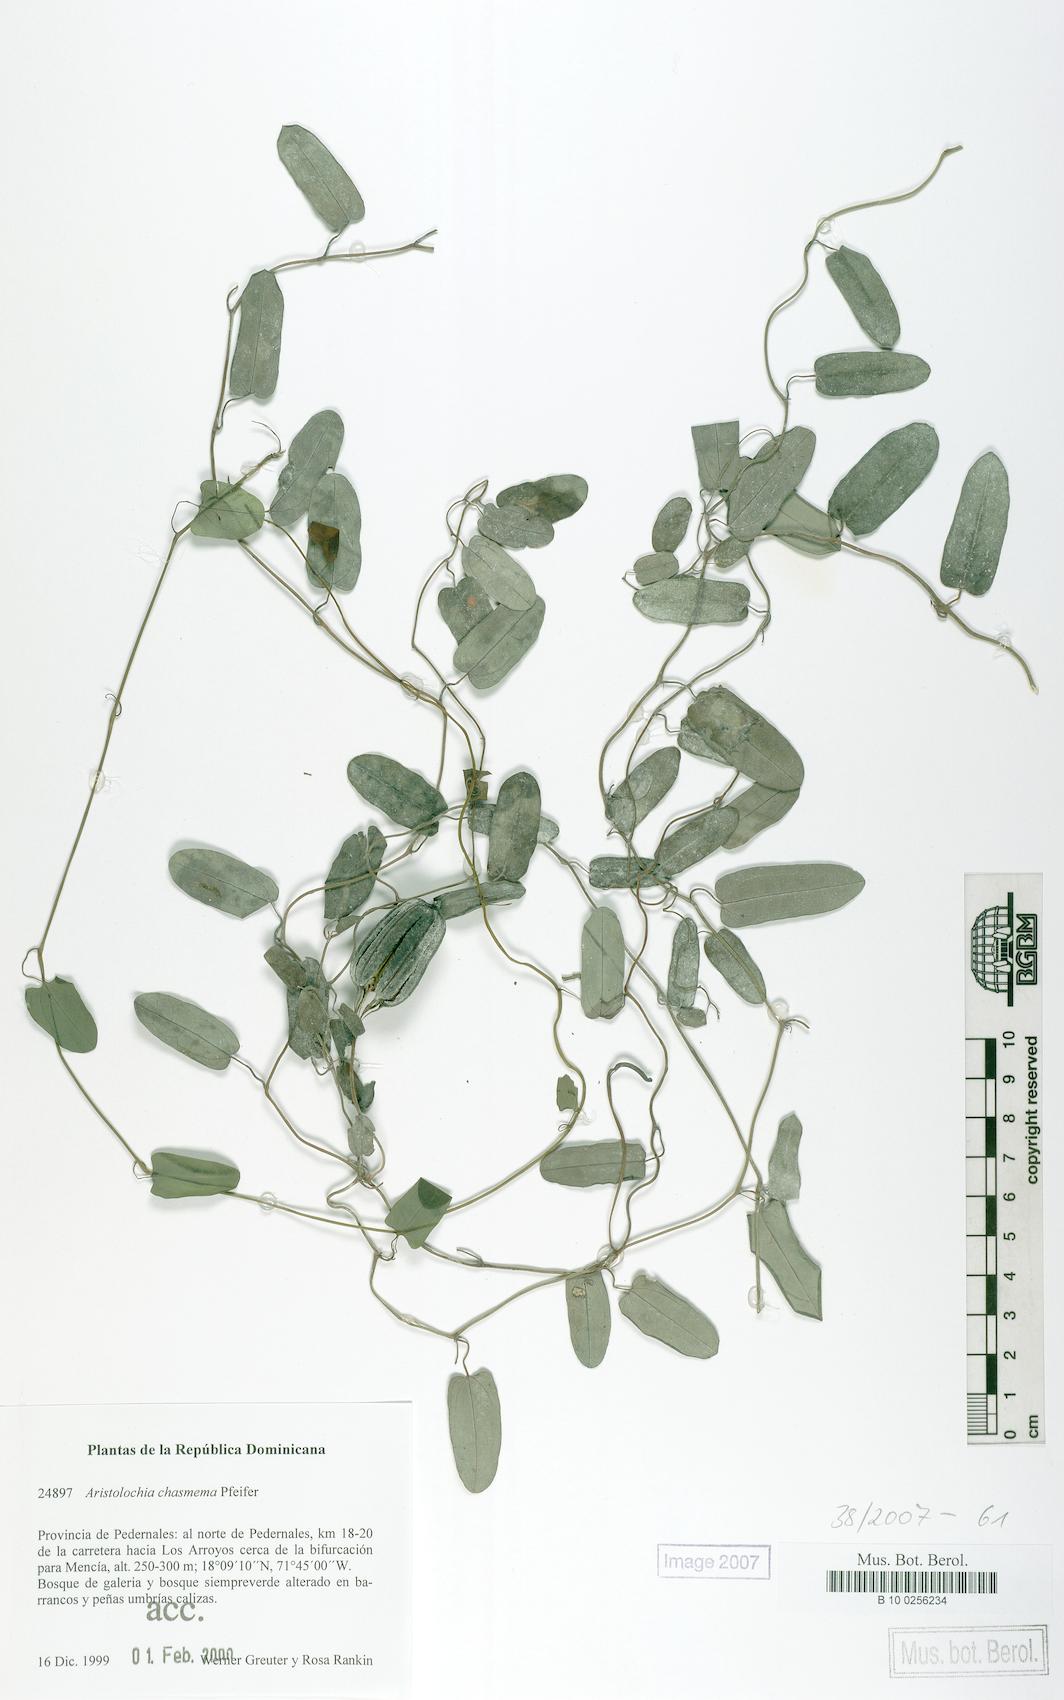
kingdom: Plantae
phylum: Tracheophyta
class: Magnoliopsida
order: Piperales
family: Aristolochiaceae
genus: Aristolochia
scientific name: Aristolochia bilabiata
